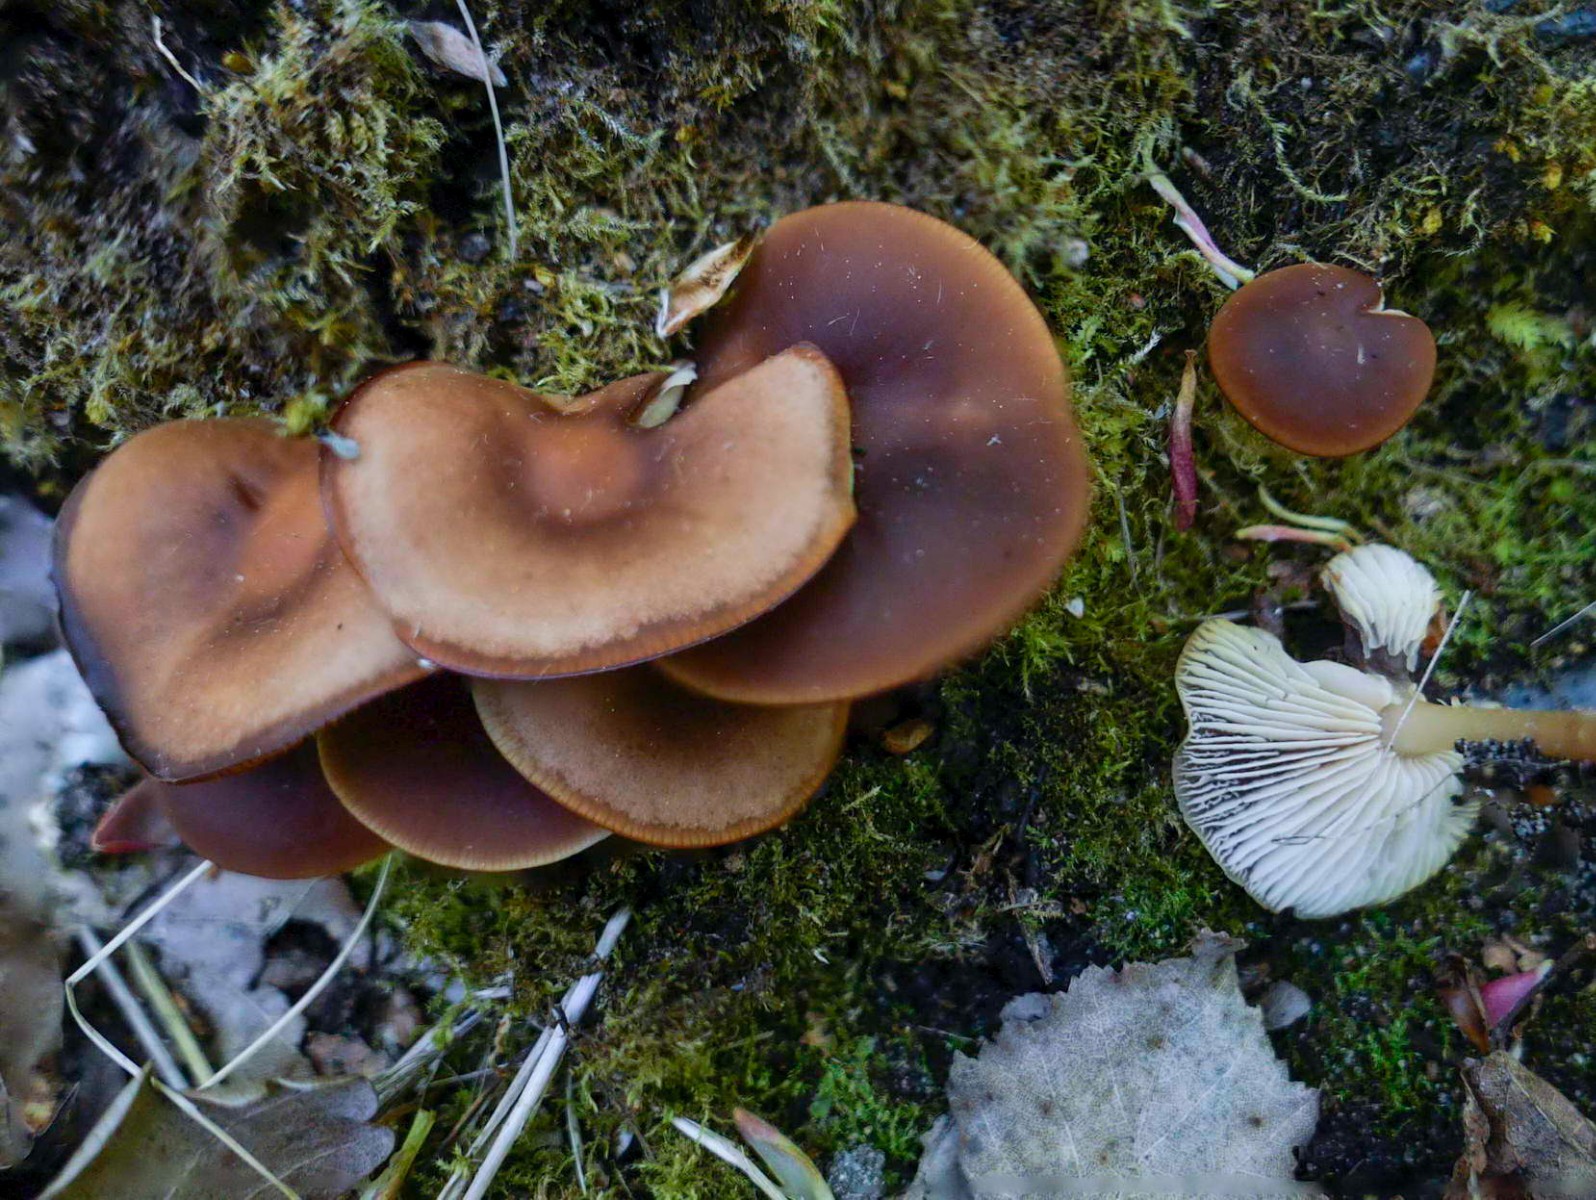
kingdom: Fungi
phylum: Basidiomycota
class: Agaricomycetes
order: Agaricales
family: Omphalotaceae
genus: Gymnopus
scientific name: Gymnopus ocior
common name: mørk fladhat
